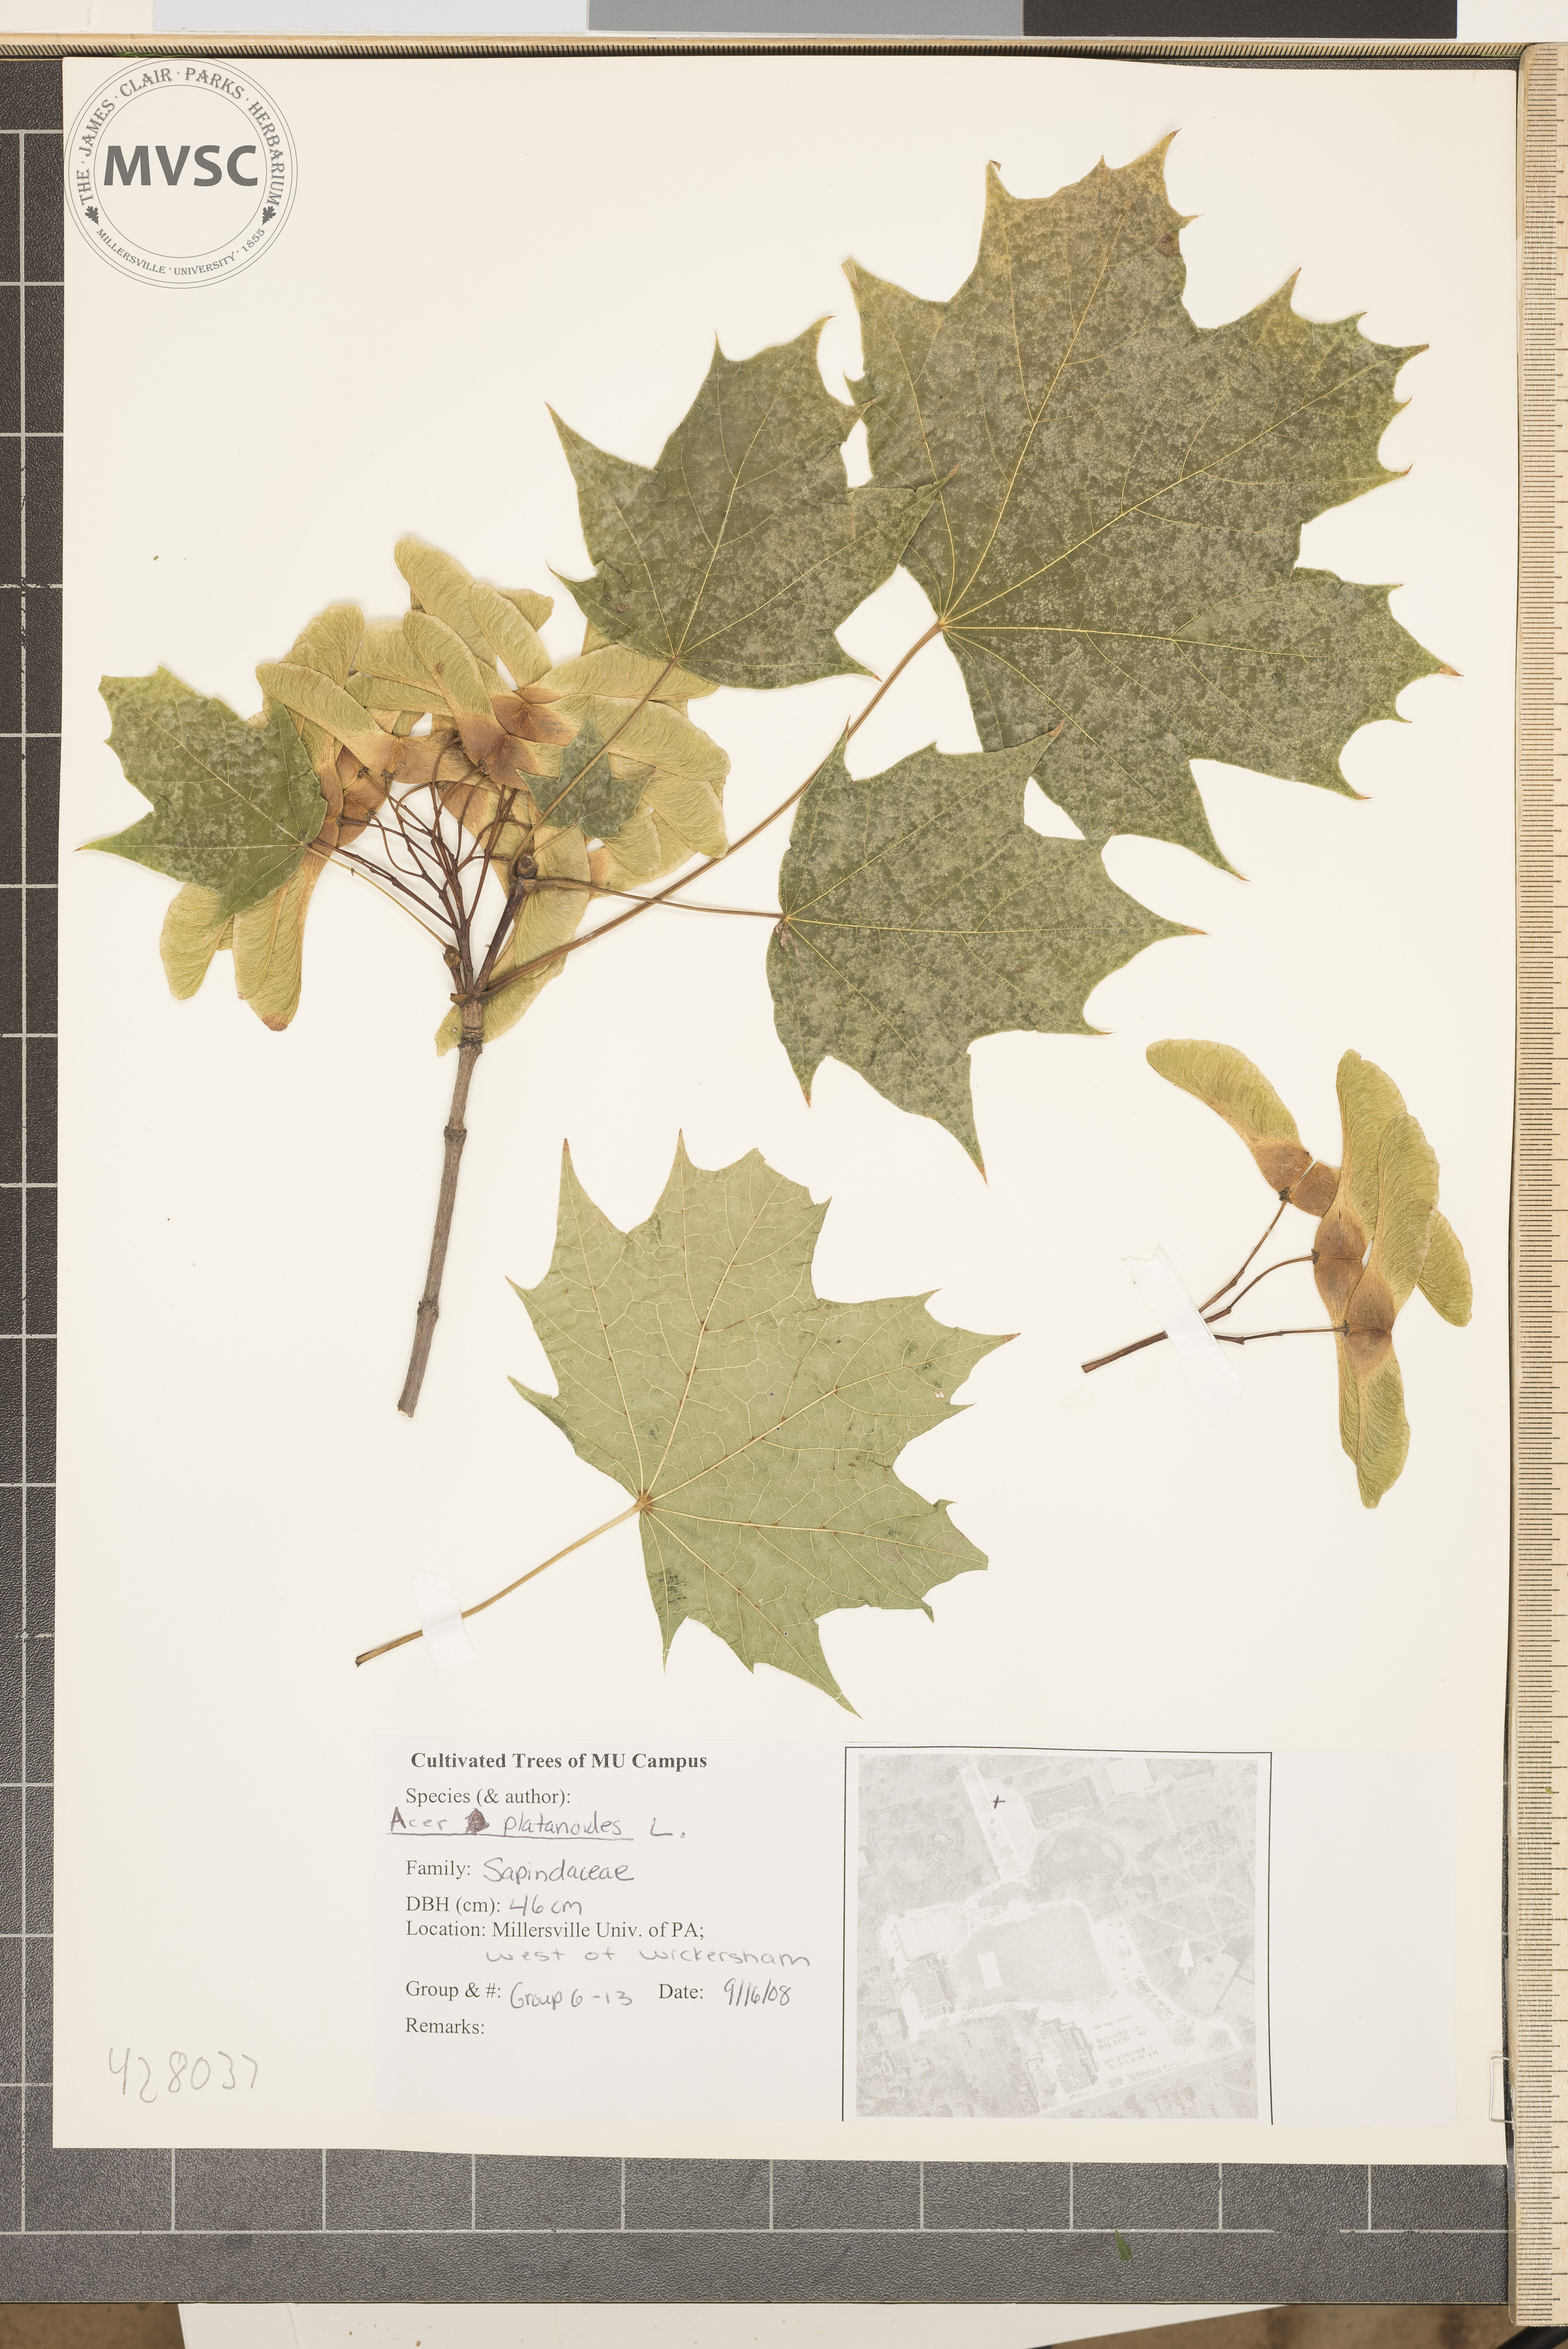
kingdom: Plantae
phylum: Tracheophyta
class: Magnoliopsida
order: Sapindales
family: Sapindaceae
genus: Acer
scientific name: Acer platanoides
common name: Norway Maple
